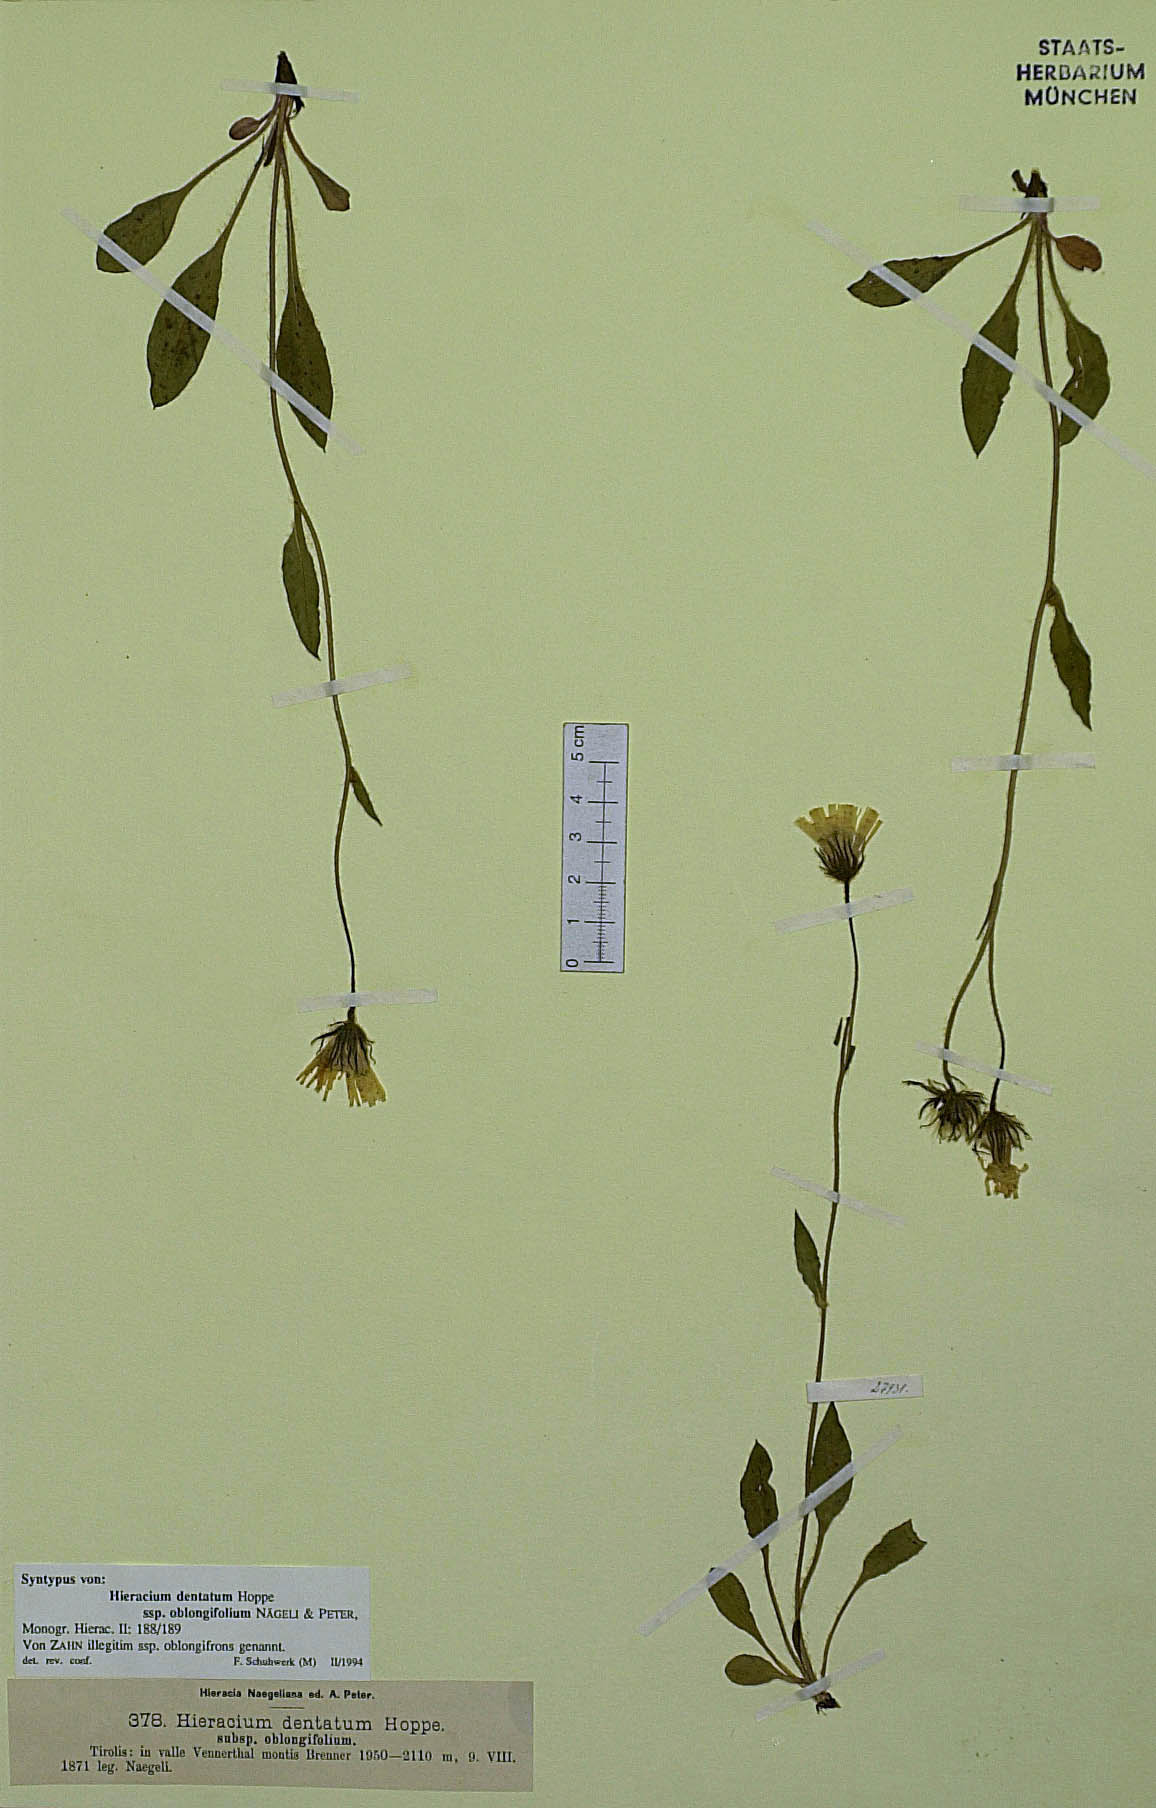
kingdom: Plantae
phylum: Tracheophyta
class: Magnoliopsida
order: Asterales
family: Asteraceae
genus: Hieracium
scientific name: Hieracium dentatum
